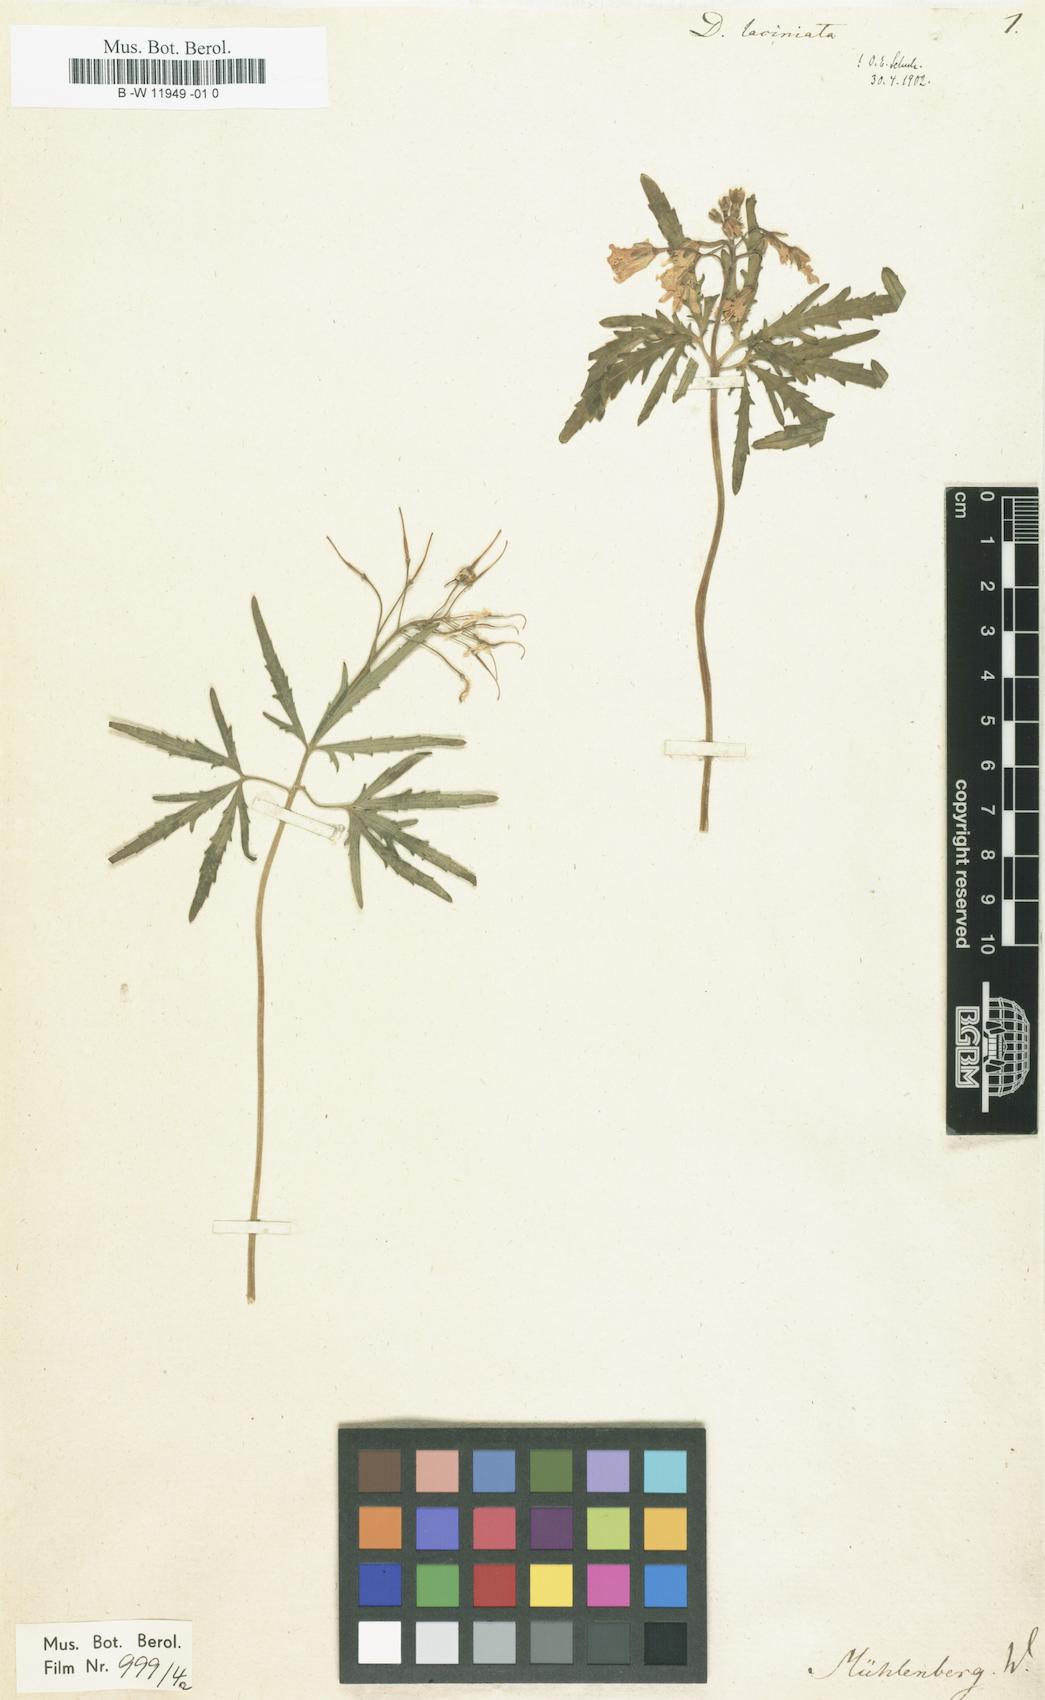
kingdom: Plantae
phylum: Tracheophyta
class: Magnoliopsida
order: Brassicales
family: Brassicaceae
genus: Cardamine
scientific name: Cardamine concatenata
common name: Cut-leaf toothcup
